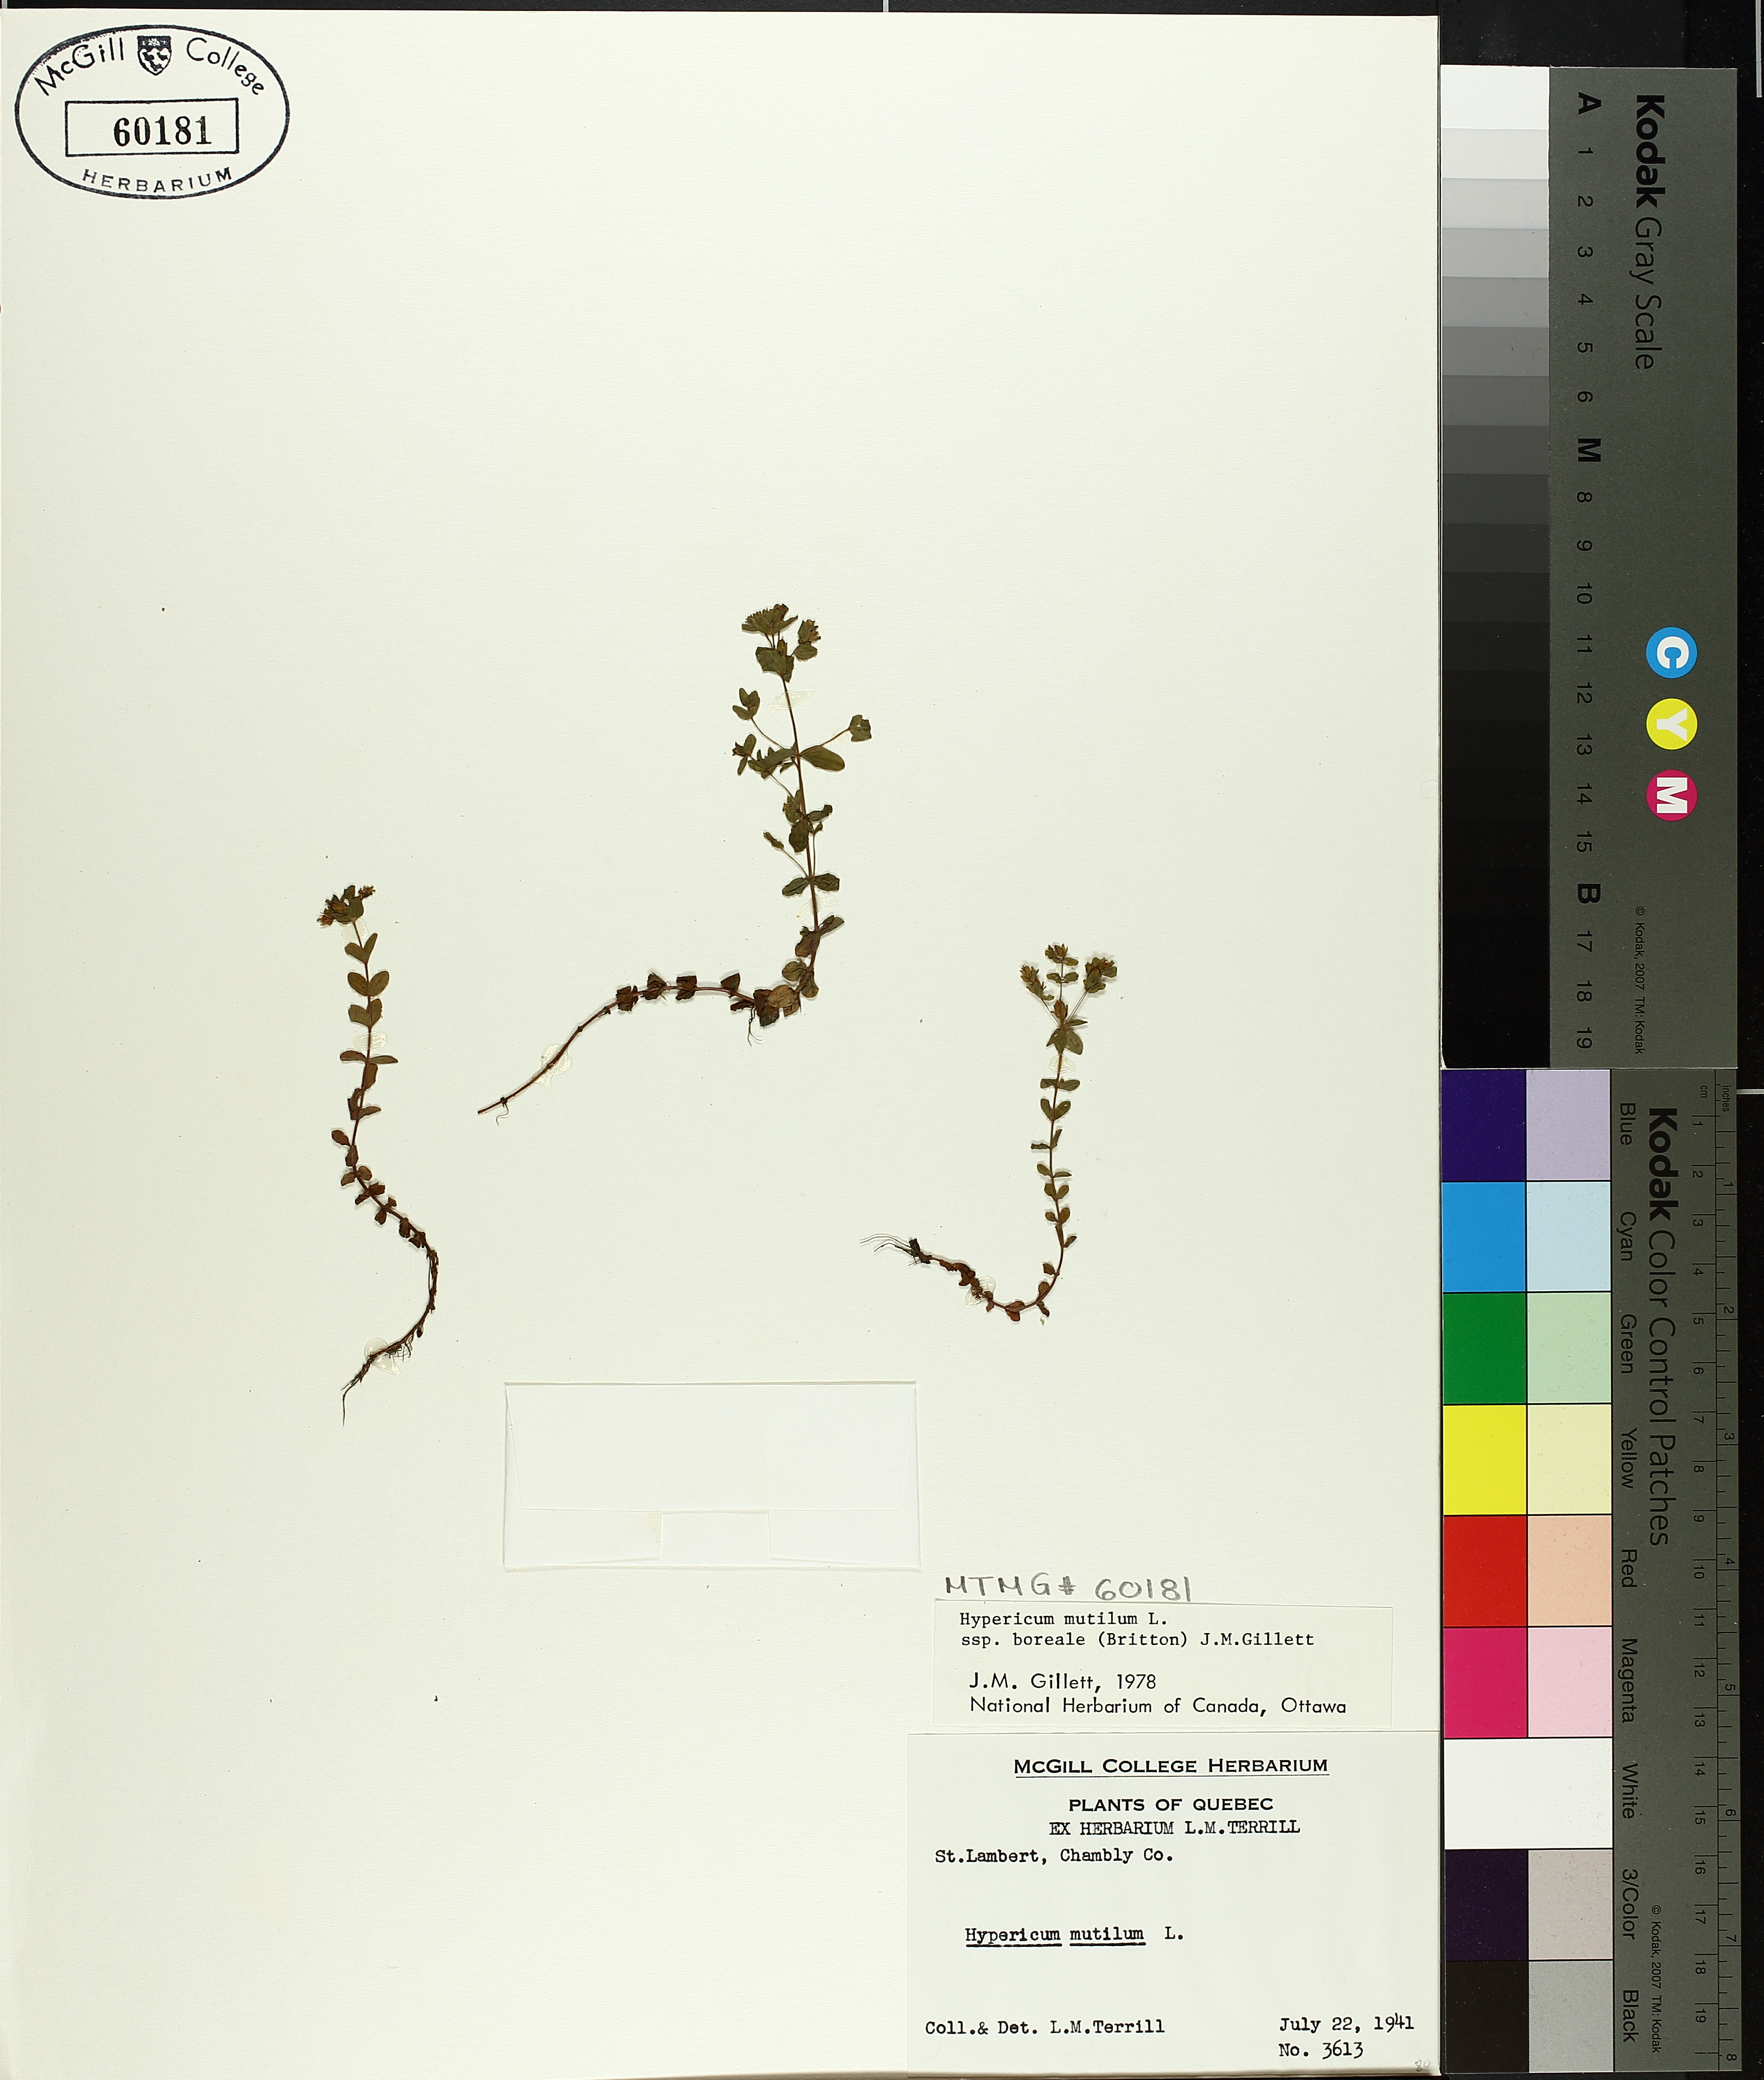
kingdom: Plantae
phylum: Tracheophyta
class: Magnoliopsida
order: Malpighiales
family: Hypericaceae
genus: Hypericum
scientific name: Hypericum boreale
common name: Northern bog st. john's-wort
